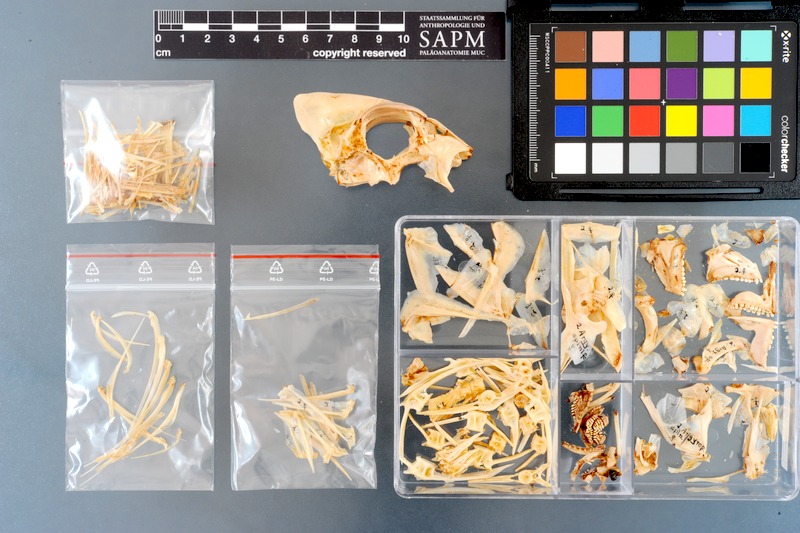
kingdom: Animalia
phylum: Chordata
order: Perciformes
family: Sparidae
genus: Argyrops
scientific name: Argyrops spinifer
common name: King soldier bream
